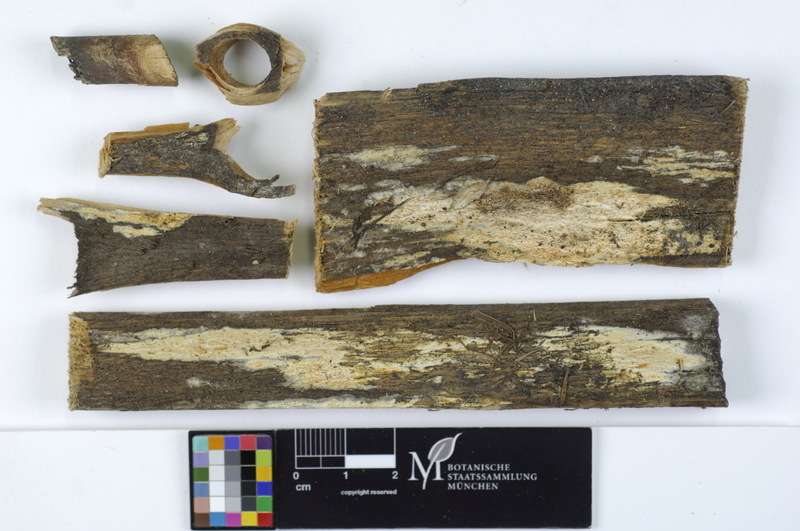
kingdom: Fungi
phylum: Basidiomycota
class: Agaricomycetes
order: Polyporales
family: Dacryobolaceae
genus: Dacryobolus
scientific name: Dacryobolus sudans
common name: Weeping toothcrust
